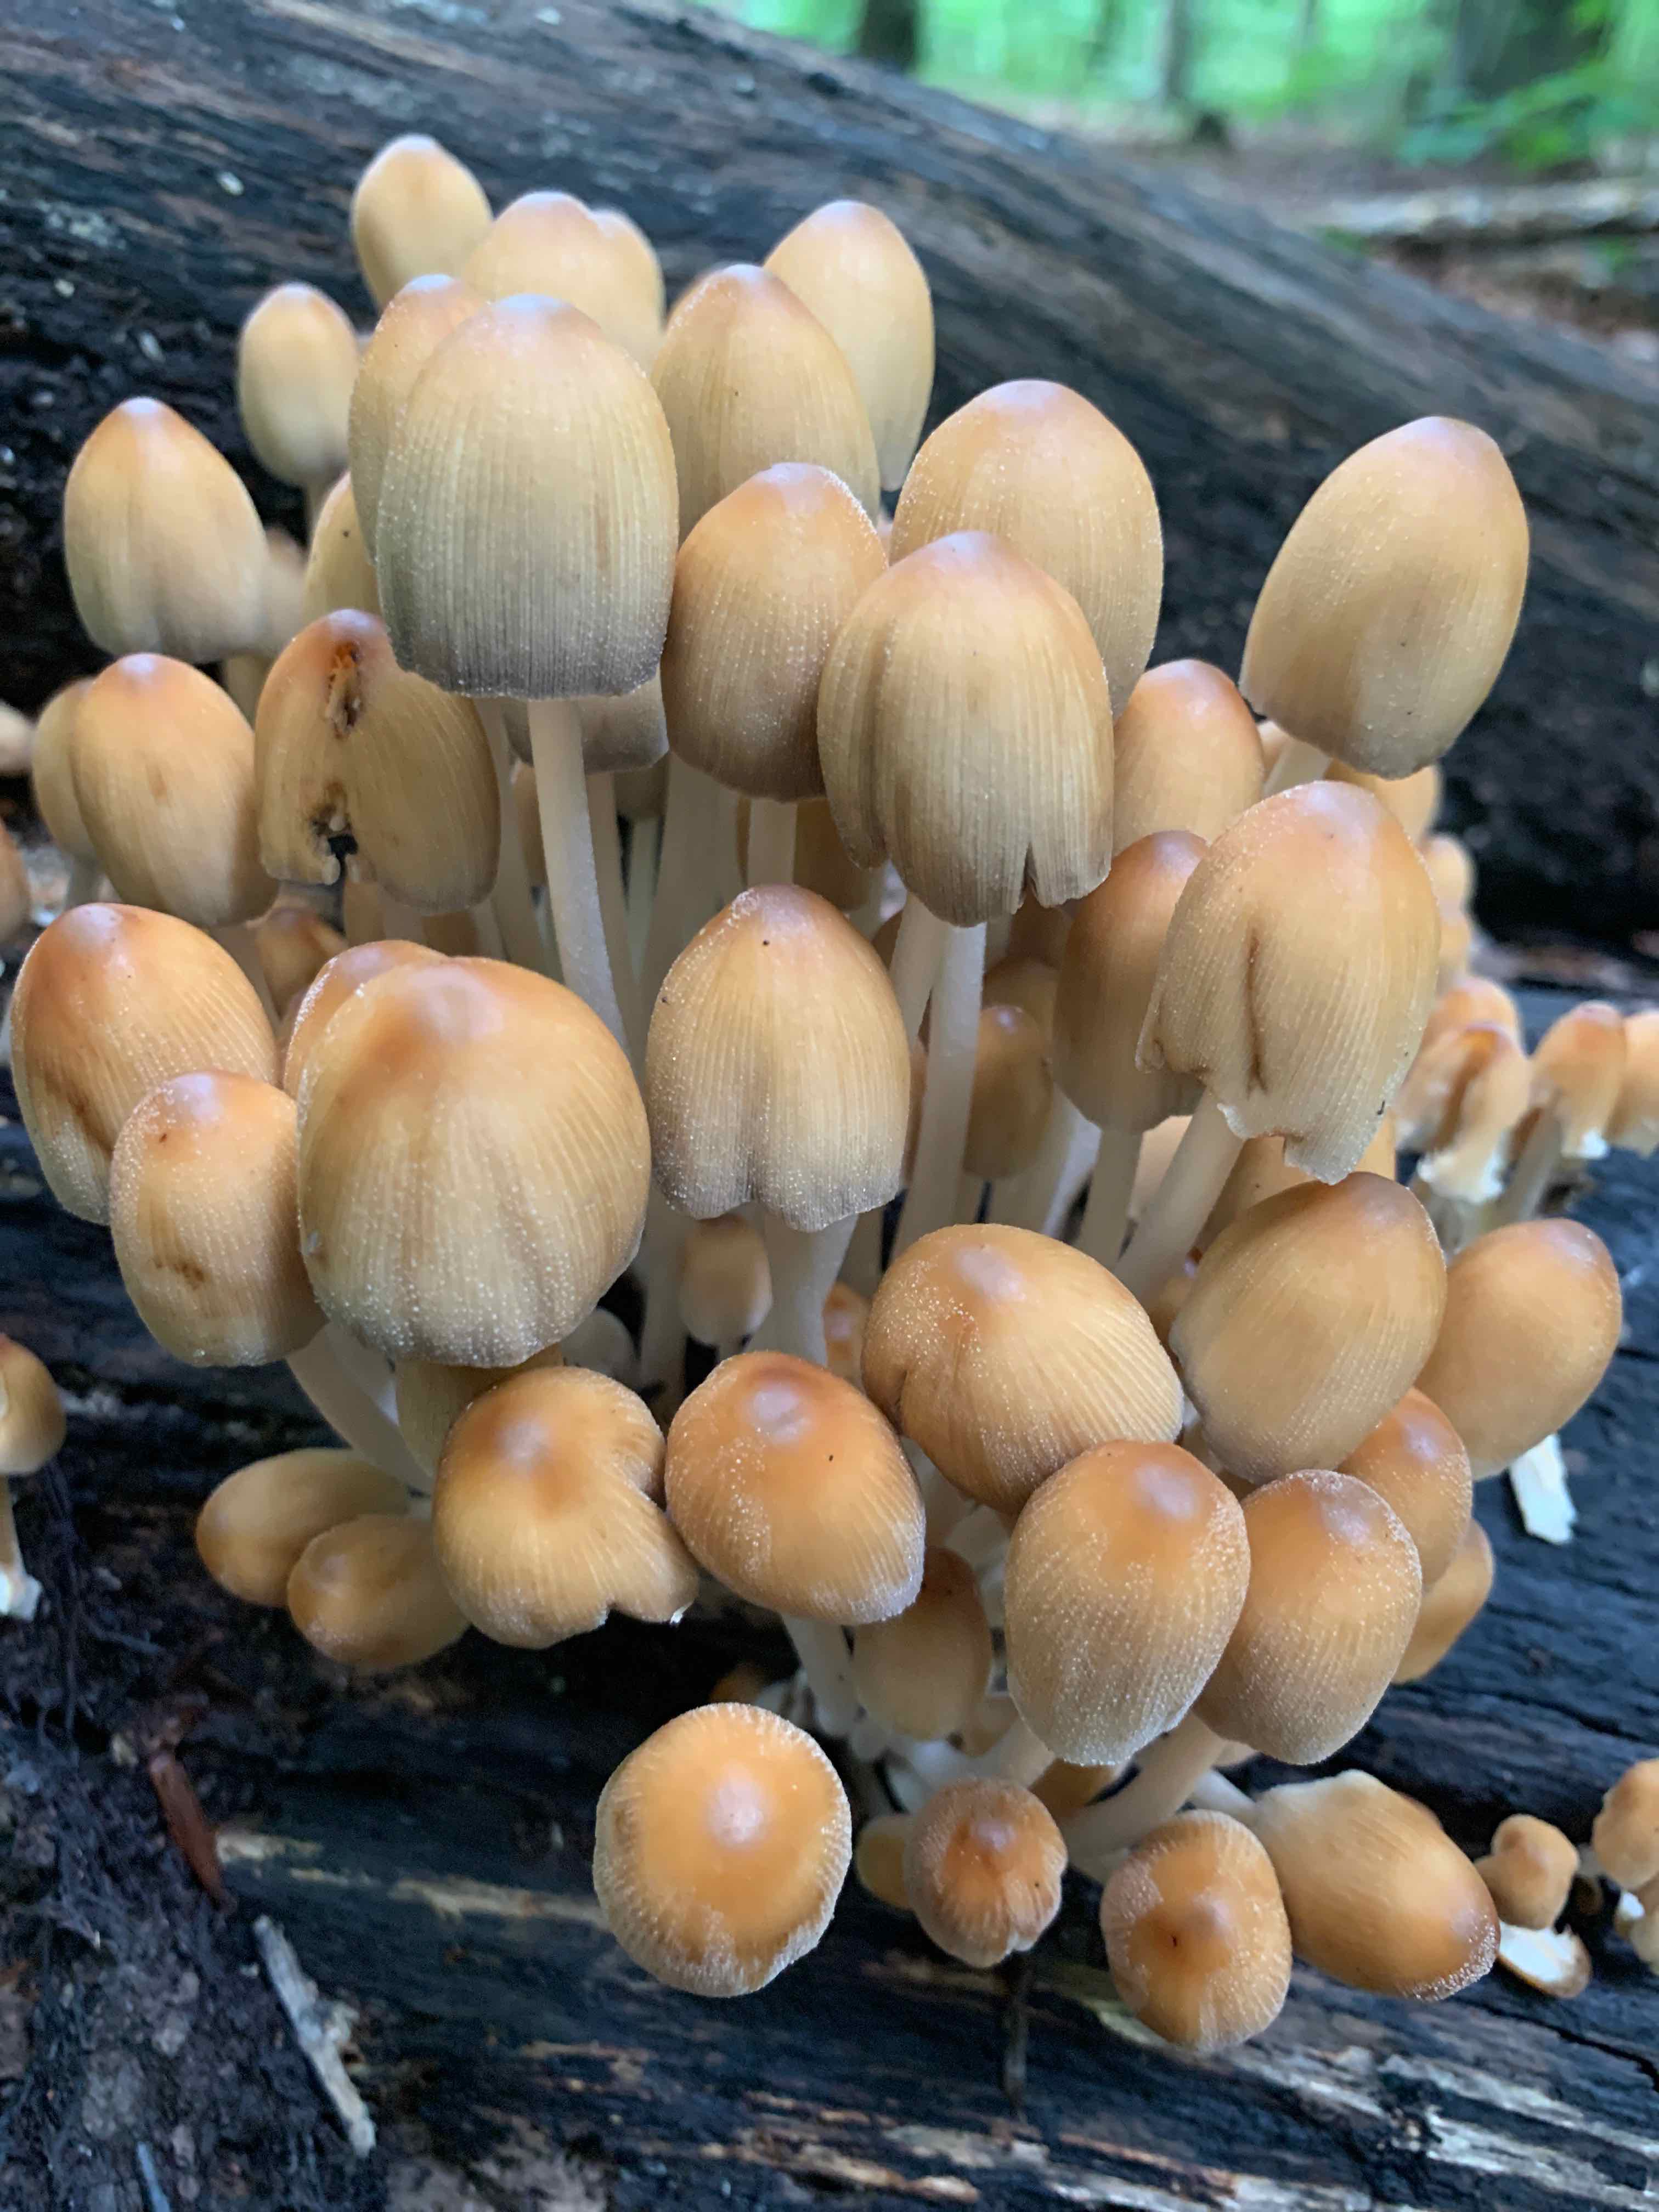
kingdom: Fungi
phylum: Basidiomycota
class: Agaricomycetes
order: Agaricales
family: Psathyrellaceae
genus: Coprinellus
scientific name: Coprinellus micaceus
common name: glimmer-blækhat
